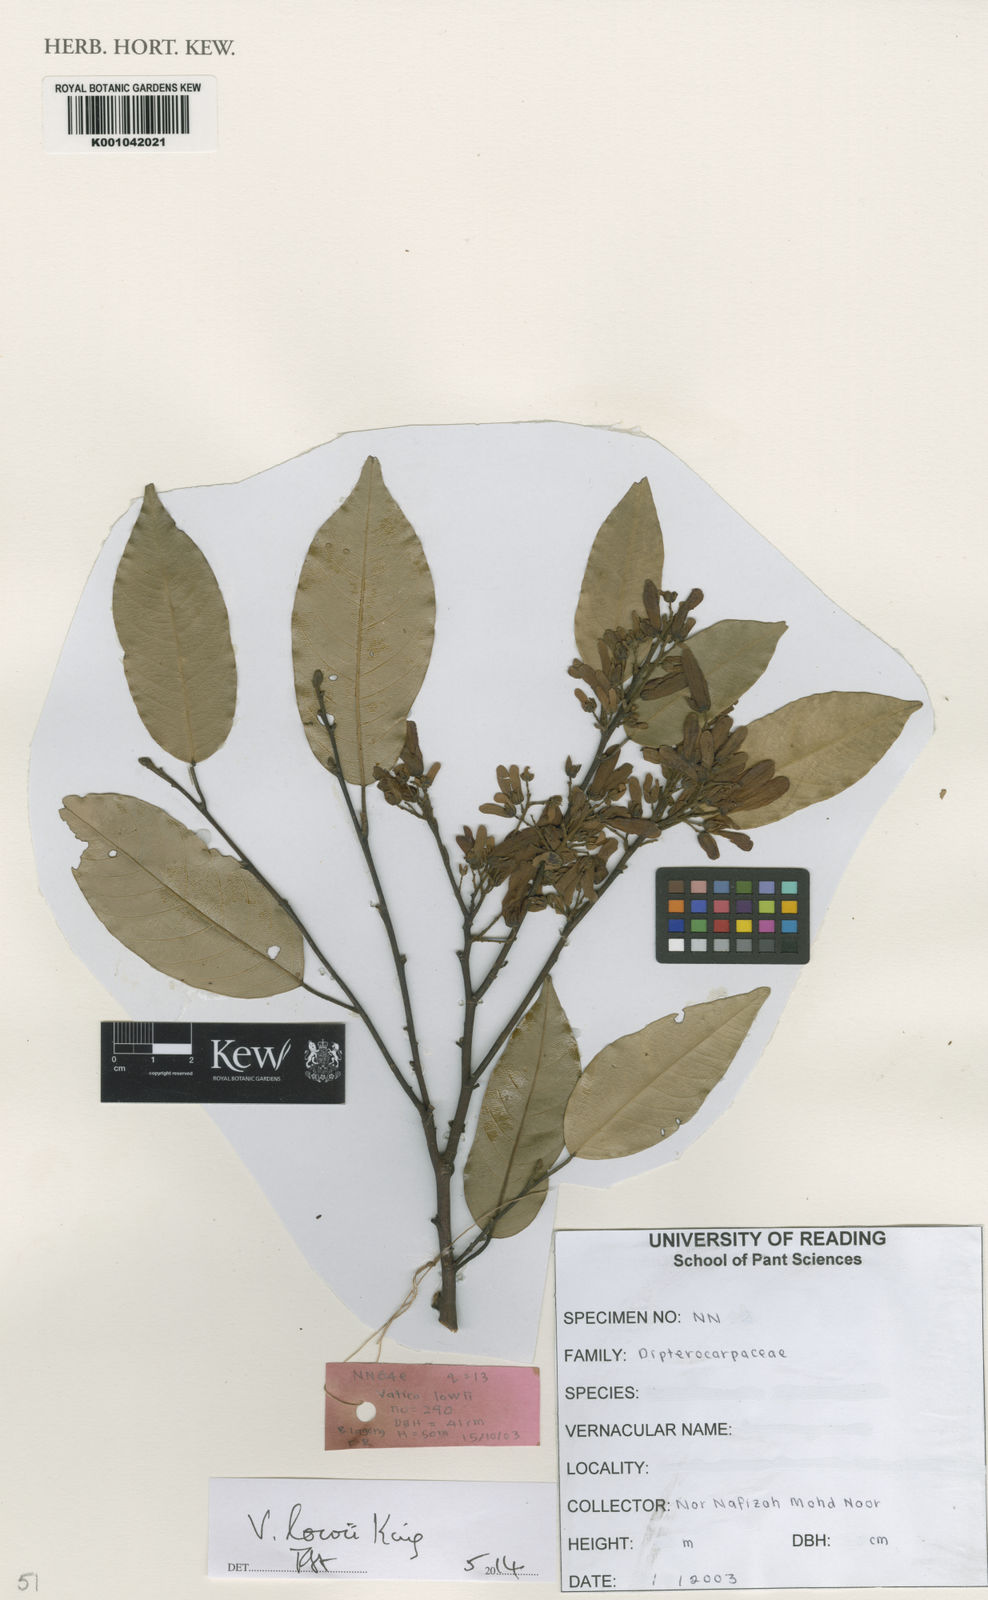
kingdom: Plantae
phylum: Tracheophyta
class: Magnoliopsida
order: Malvales
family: Dipterocarpaceae
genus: Vatica
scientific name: Vatica lowii
